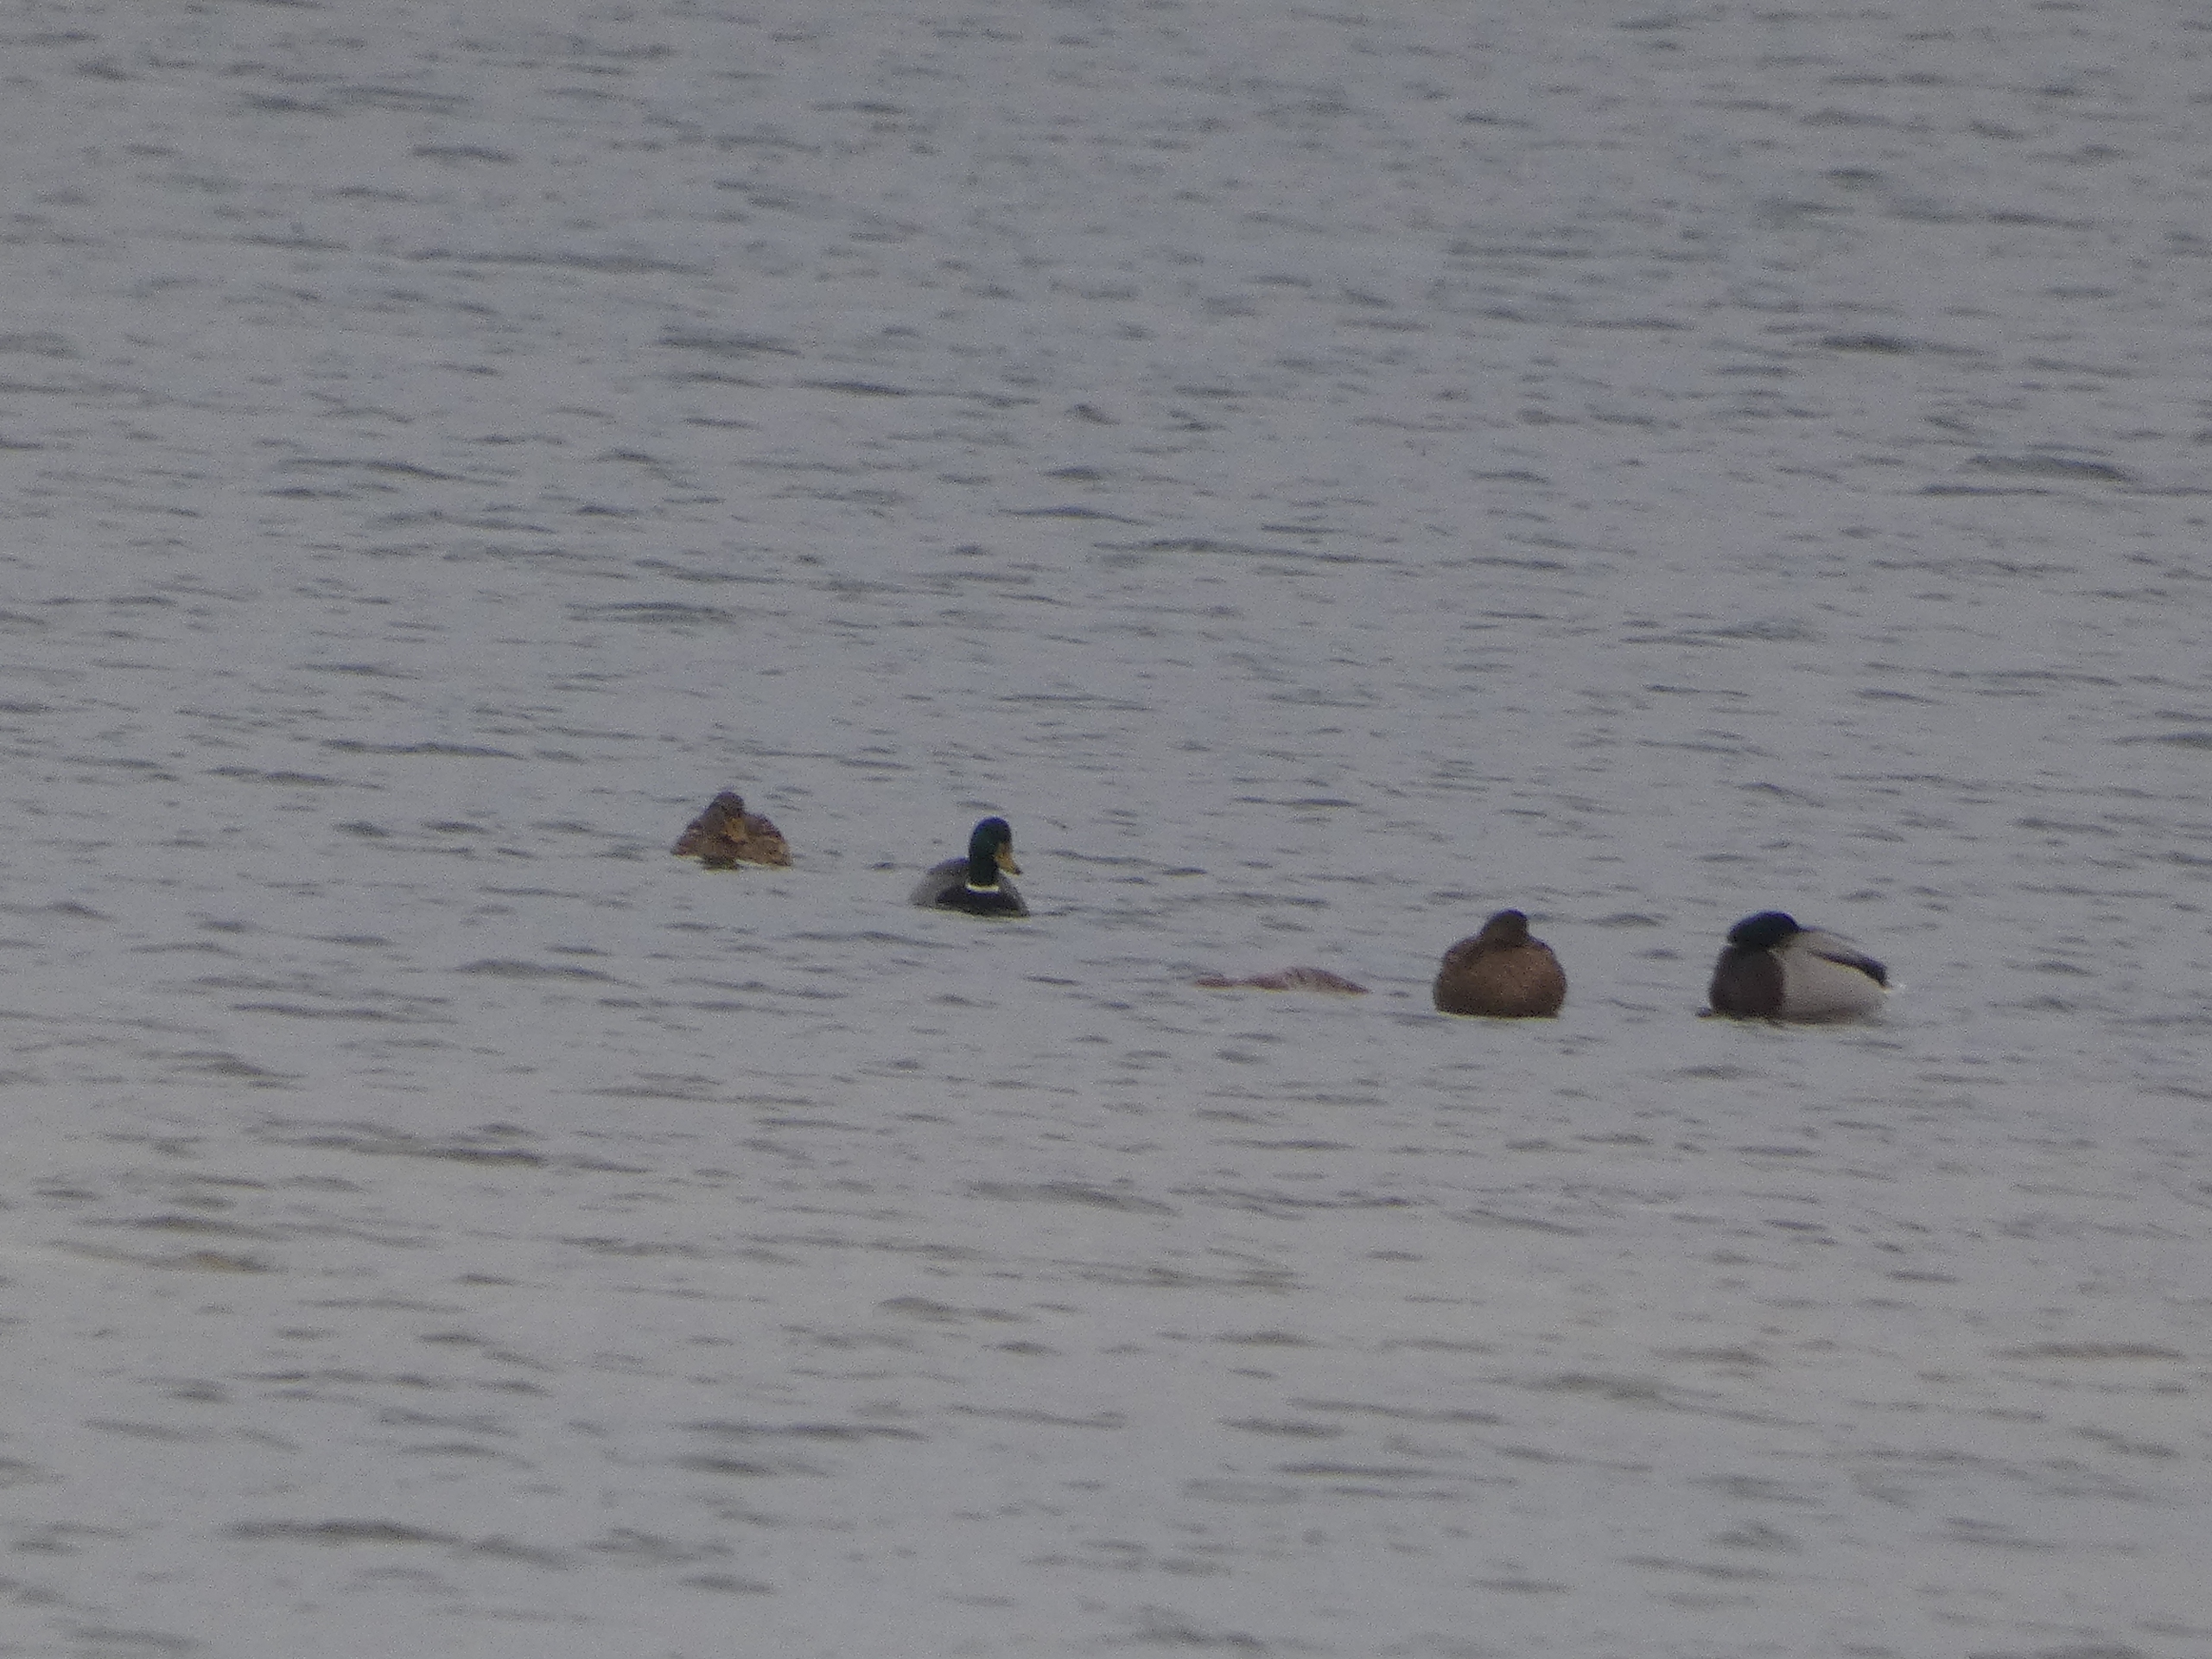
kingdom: Animalia
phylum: Chordata
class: Aves
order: Anseriformes
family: Anatidae
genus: Anas
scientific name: Anas platyrhynchos
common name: Gråand
